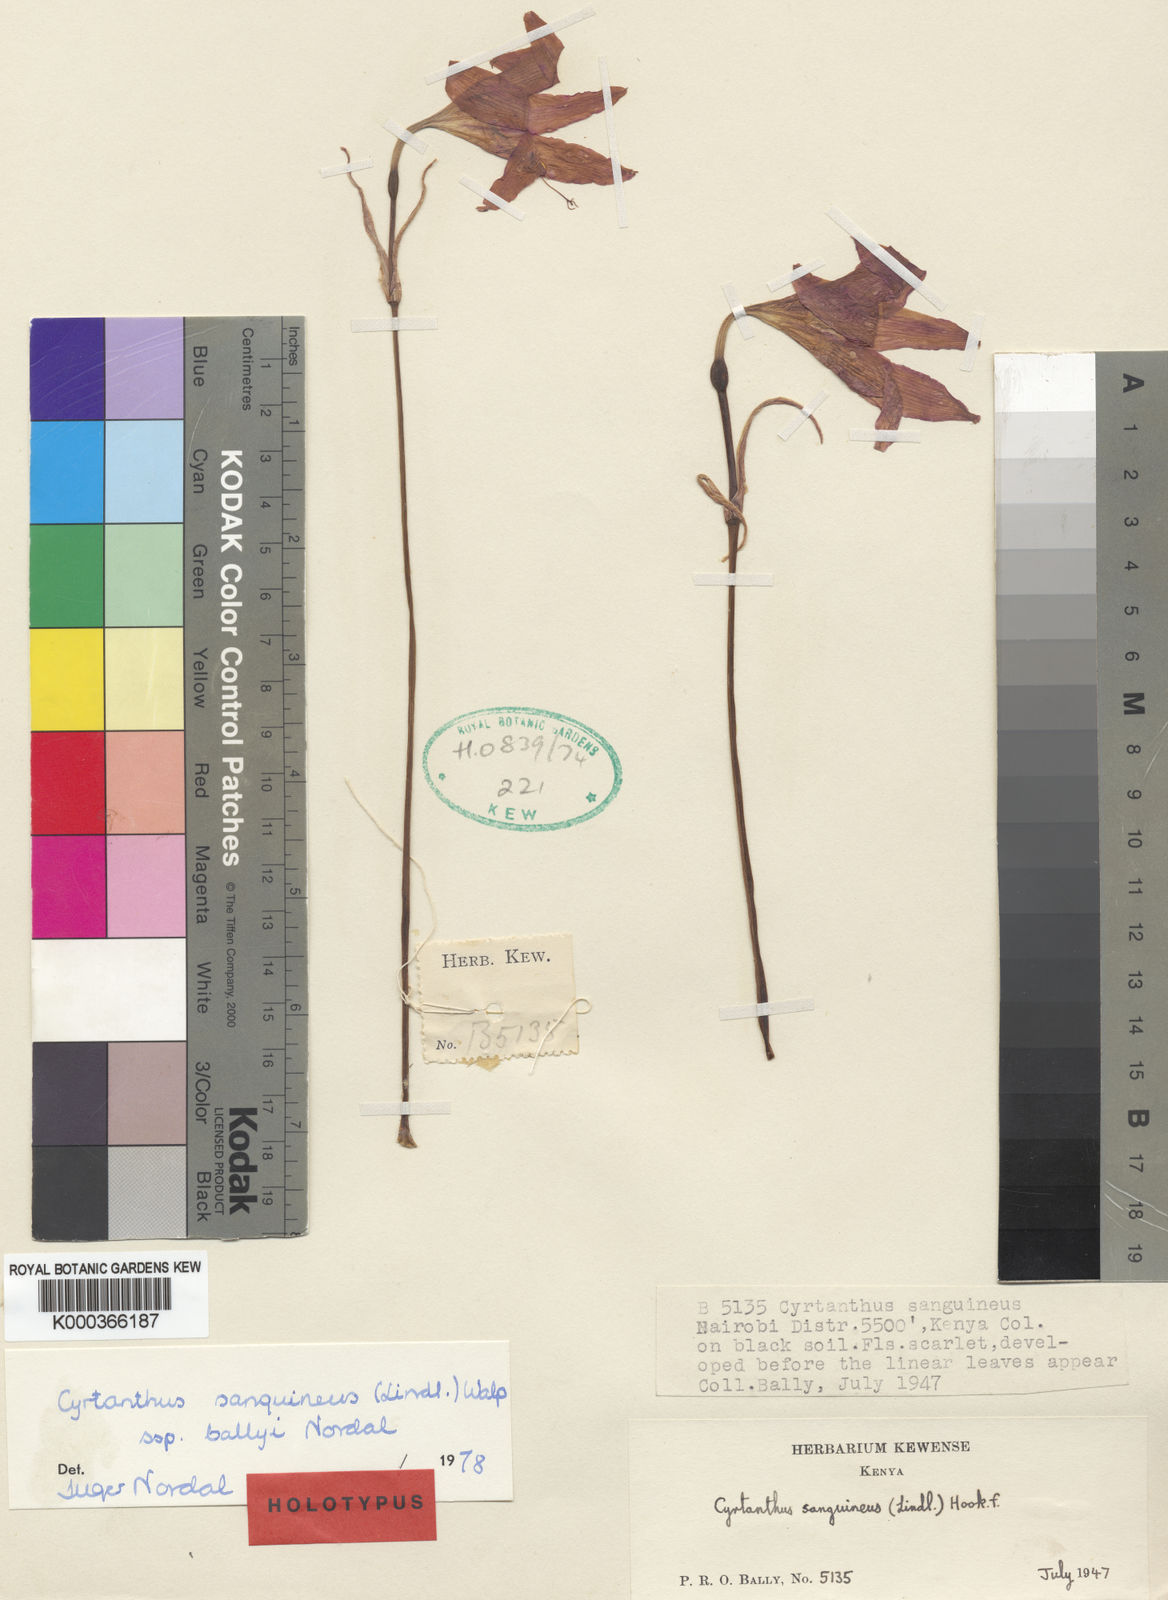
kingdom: Plantae
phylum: Tracheophyta
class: Liliopsida
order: Asparagales
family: Amaryllidaceae
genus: Cyrtanthus
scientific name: Cyrtanthus sanguineus
